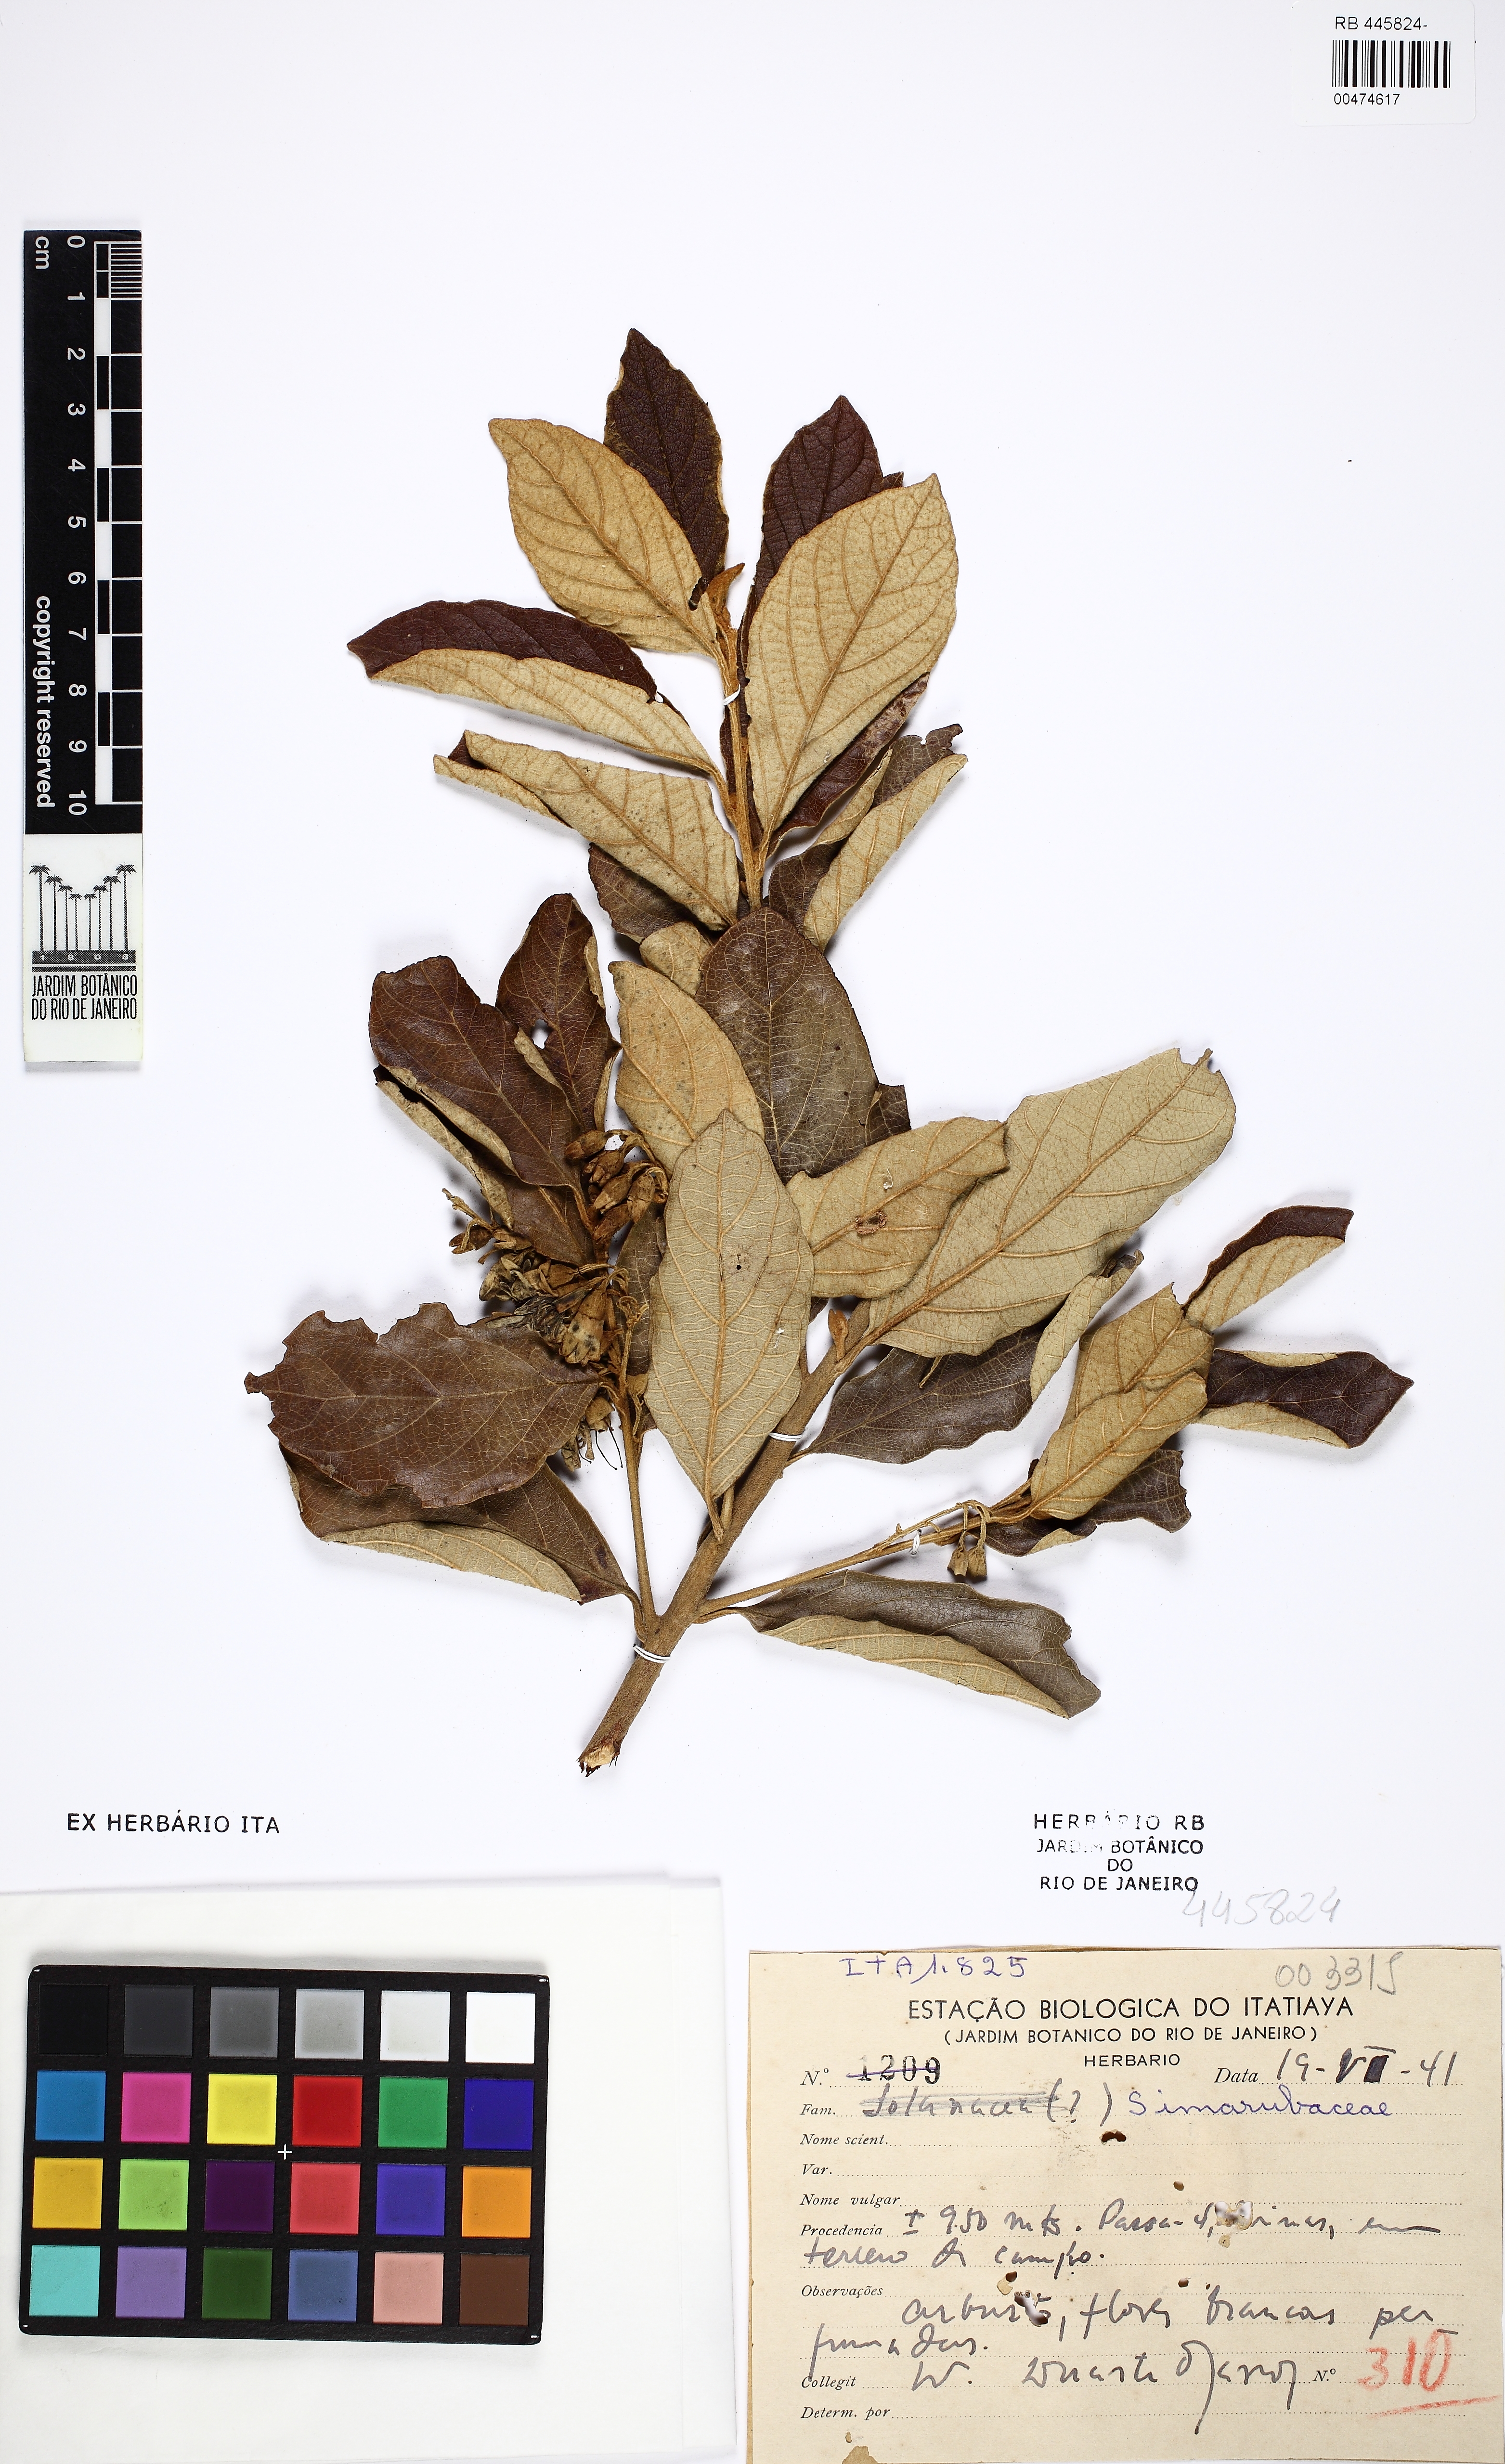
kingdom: Plantae
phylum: Tracheophyta
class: Magnoliopsida
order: Ericales
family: Styracaceae
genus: Styrax
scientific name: Styrax
